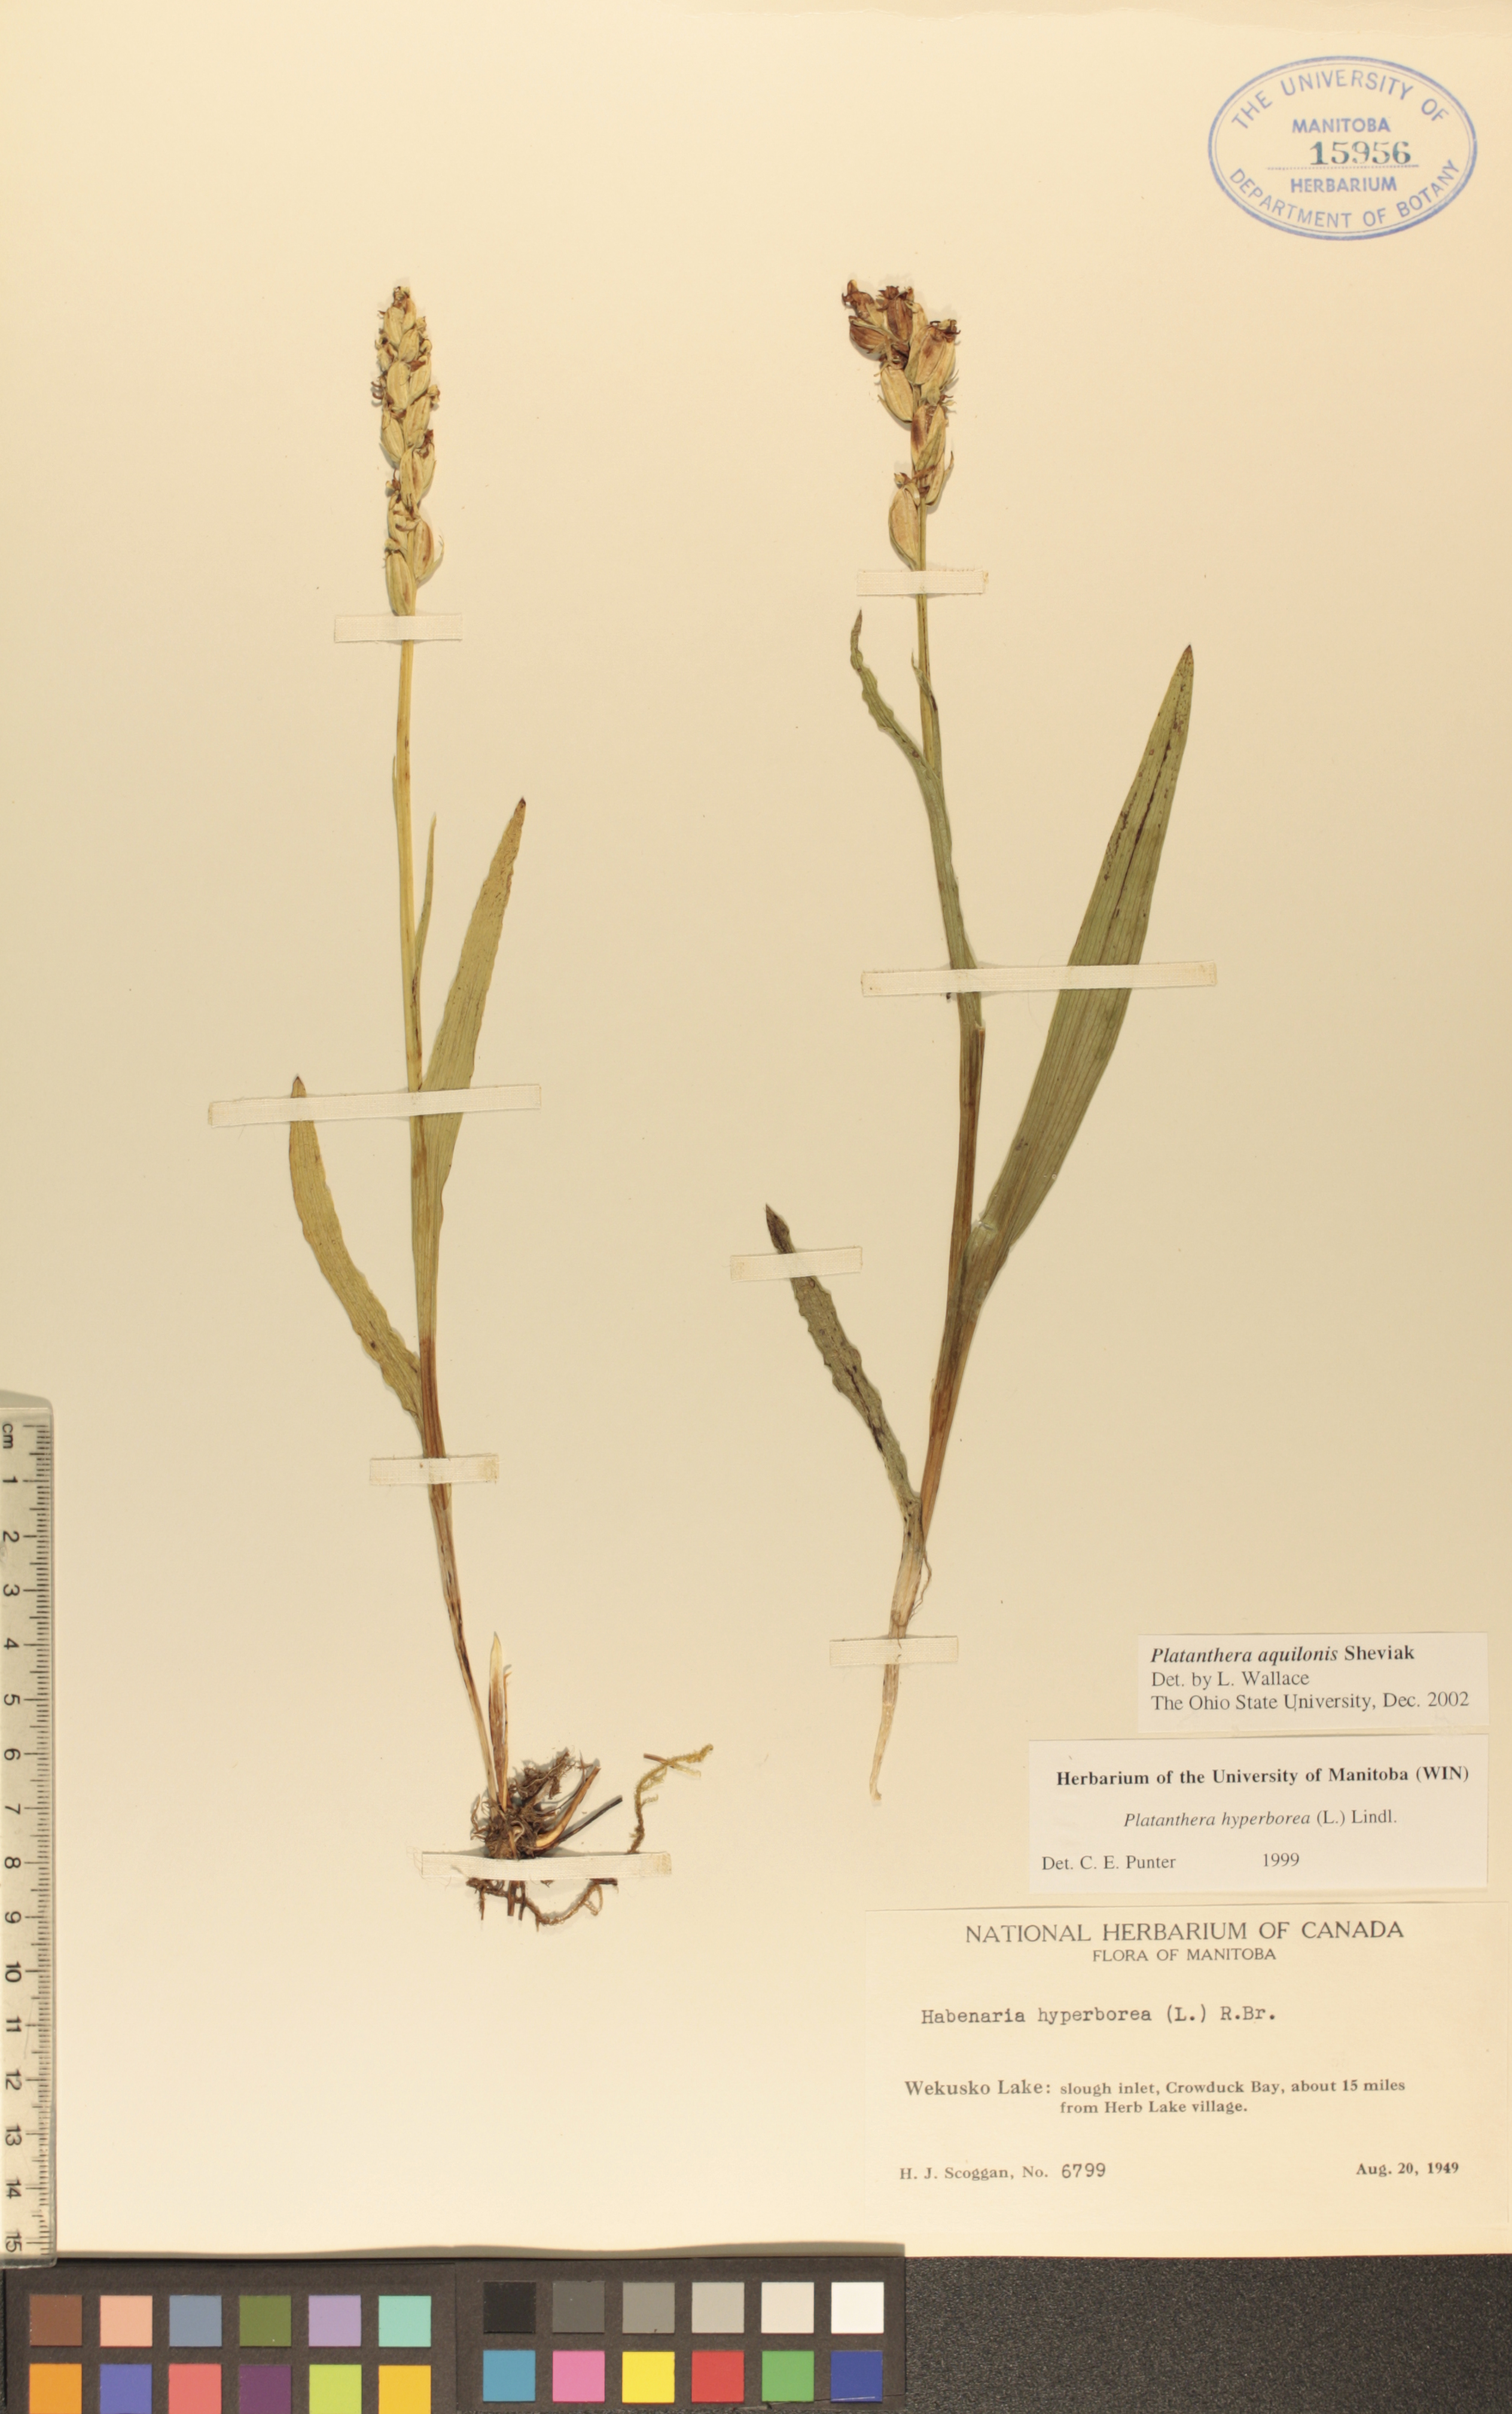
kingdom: Plantae
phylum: Tracheophyta
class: Liliopsida
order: Asparagales
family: Orchidaceae
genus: Platanthera
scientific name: Platanthera aquilonis
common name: Northern green orchid
